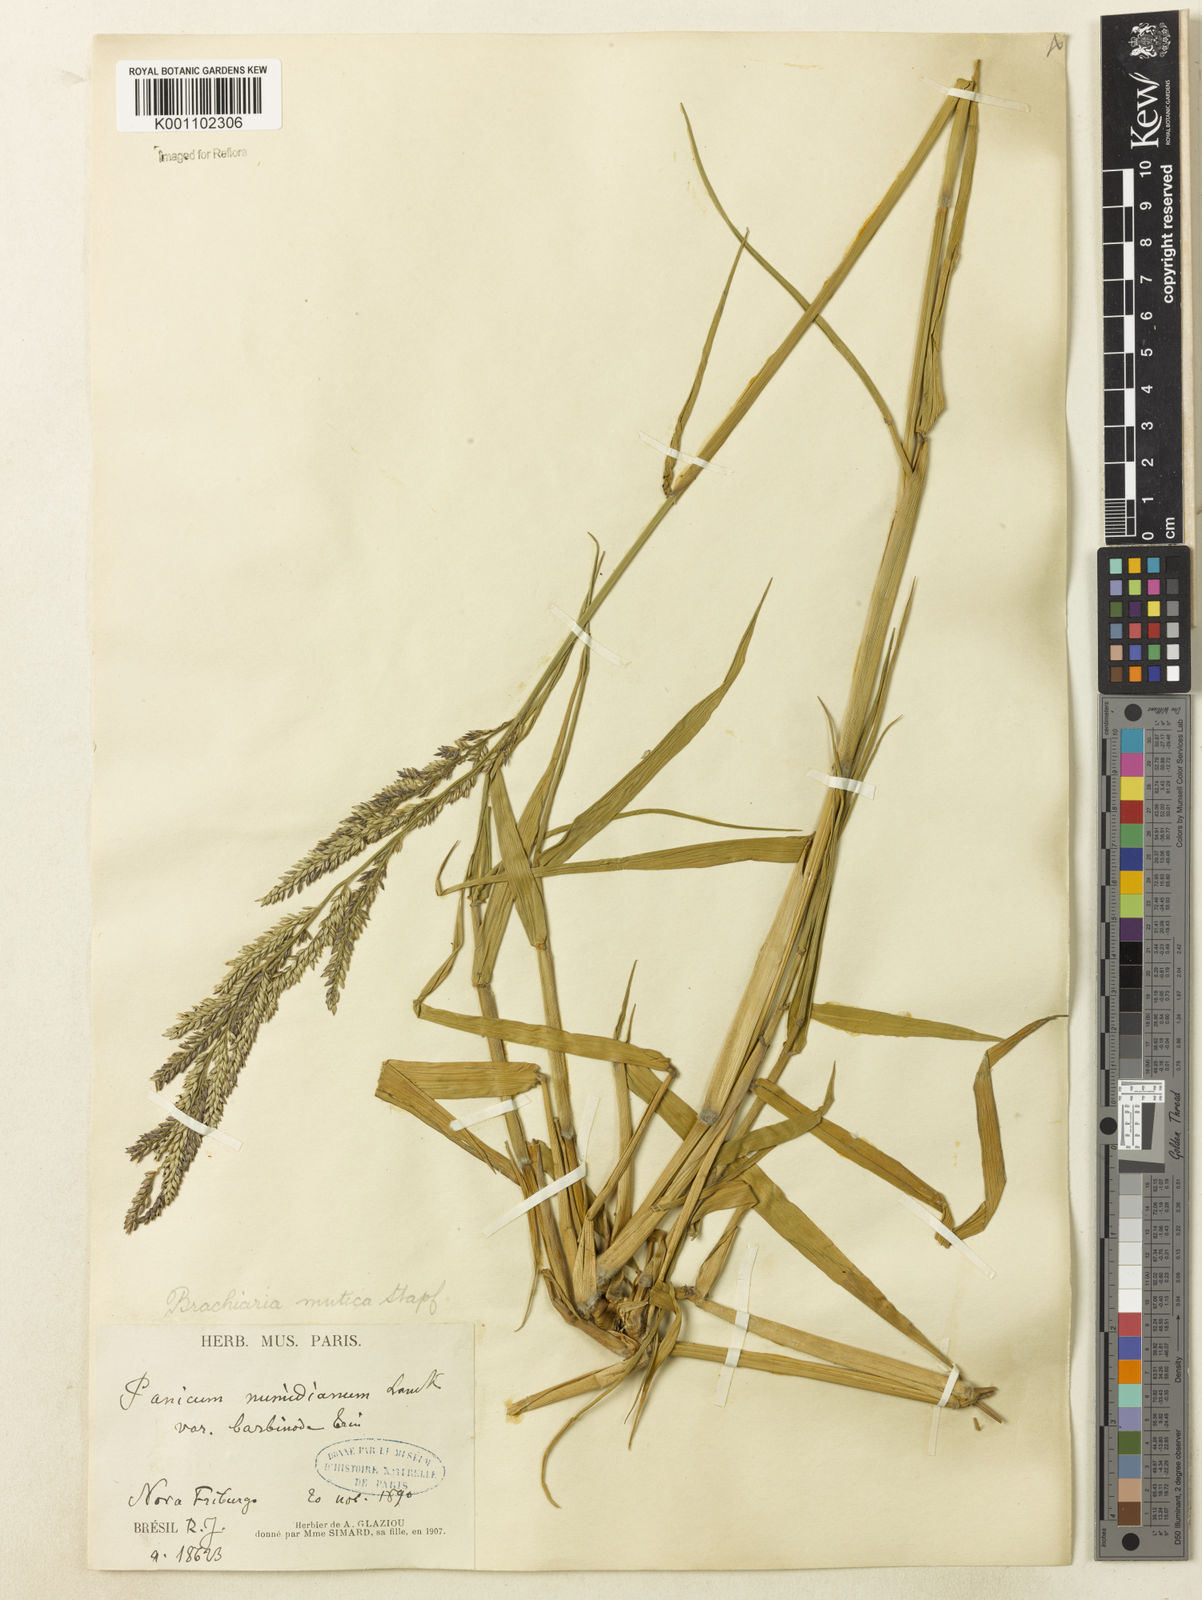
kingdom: Plantae
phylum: Tracheophyta
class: Liliopsida
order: Poales
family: Poaceae
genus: Urochloa
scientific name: Urochloa mutica
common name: Para grass
